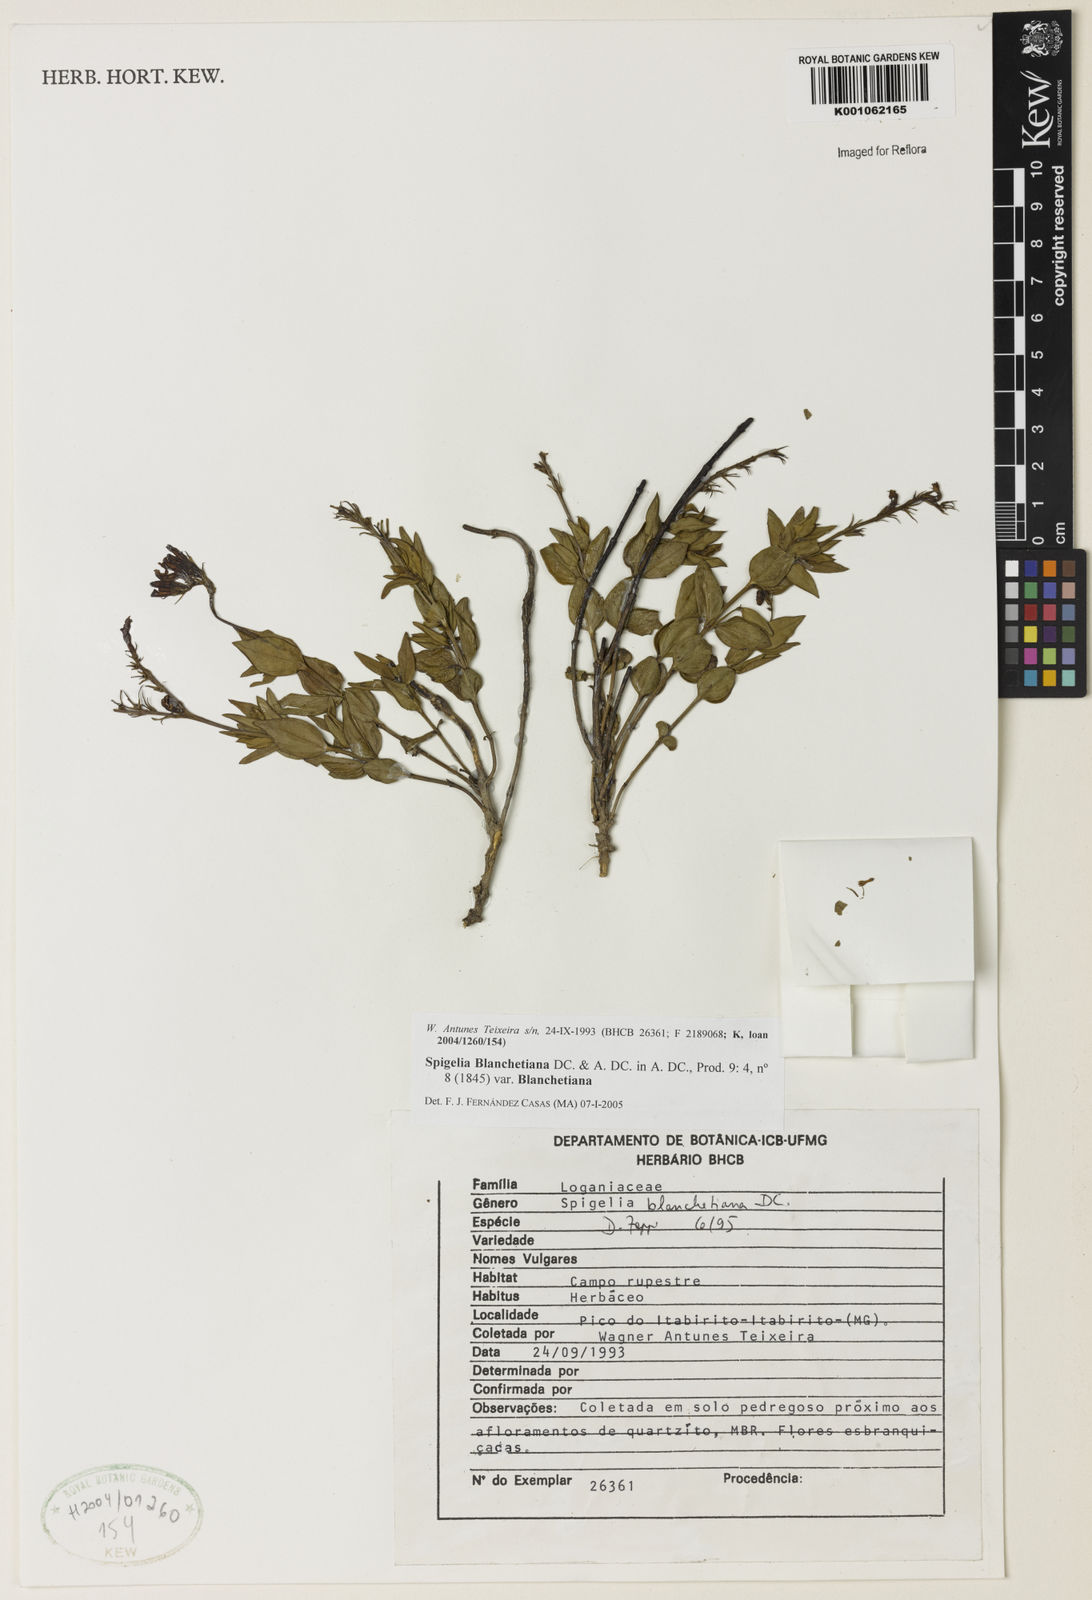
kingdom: Plantae
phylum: Tracheophyta
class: Magnoliopsida
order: Gentianales
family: Loganiaceae
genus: Spigelia
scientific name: Spigelia blanchetiana
